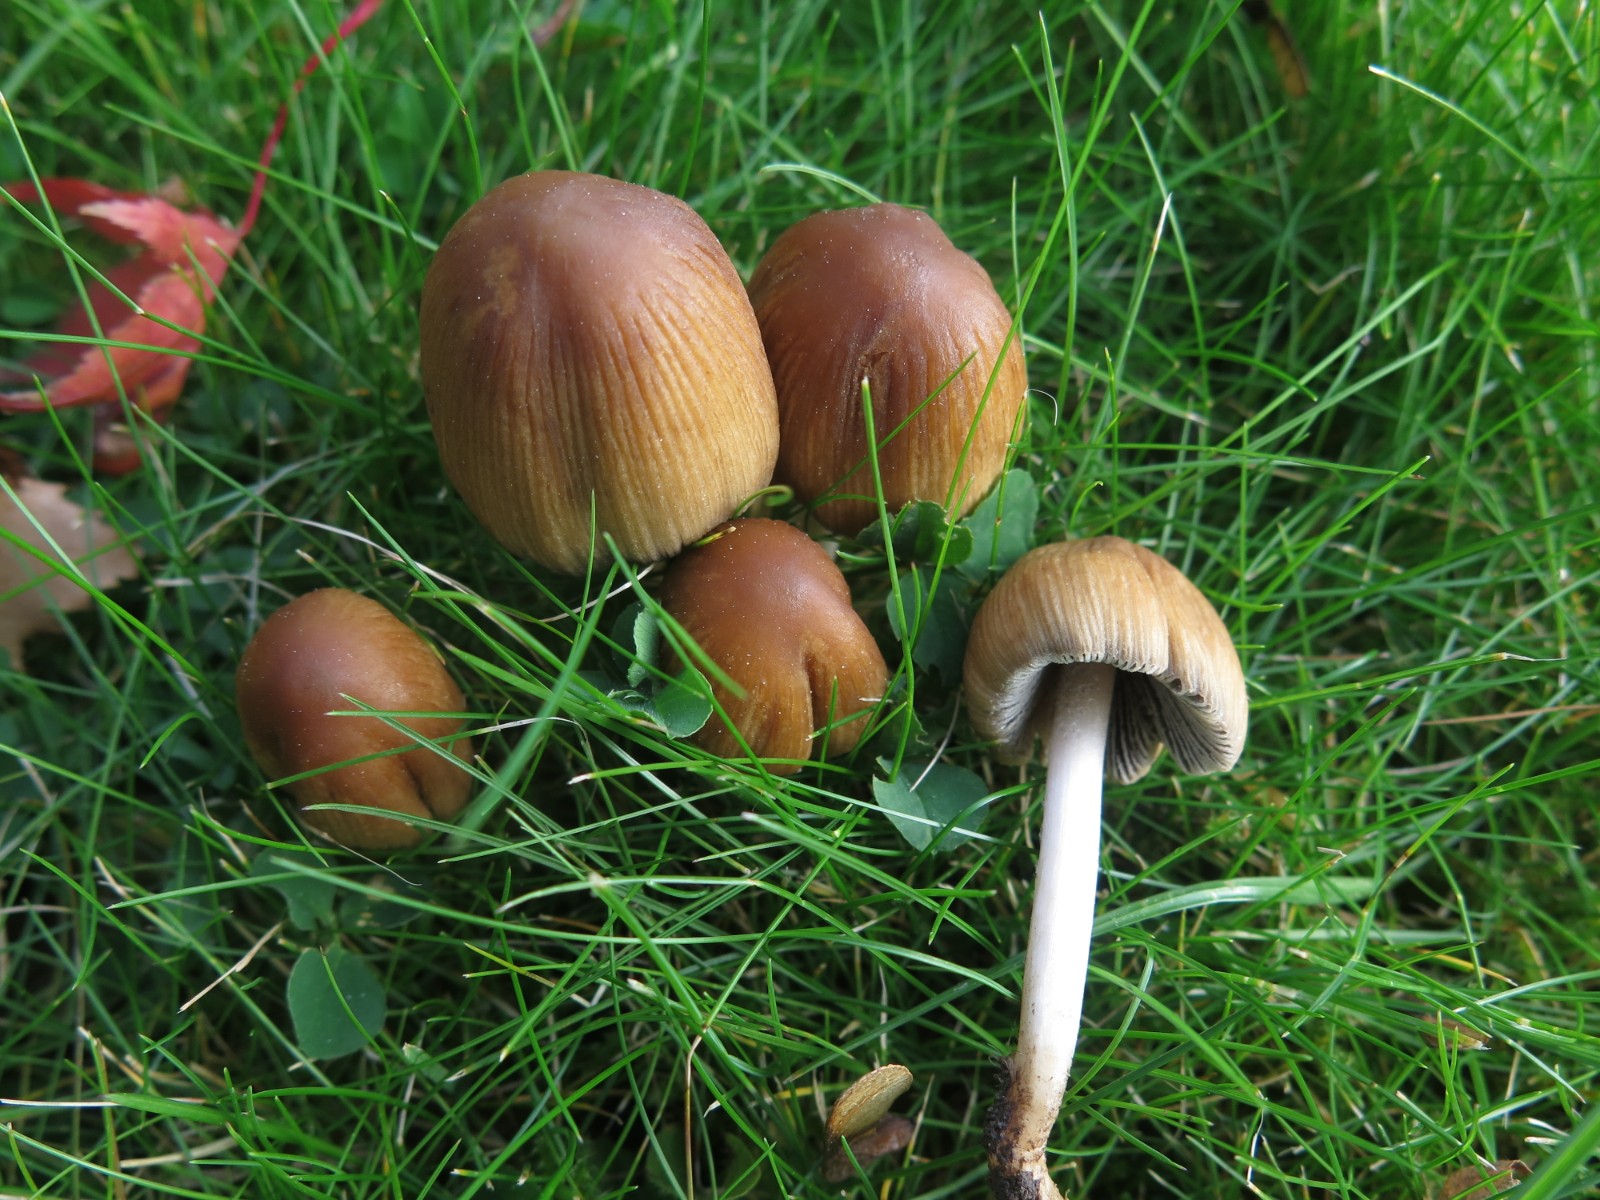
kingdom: Fungi
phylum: Basidiomycota
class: Agaricomycetes
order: Agaricales
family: Psathyrellaceae
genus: Coprinellus
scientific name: Coprinellus micaceus
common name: glimmer-blækhat
